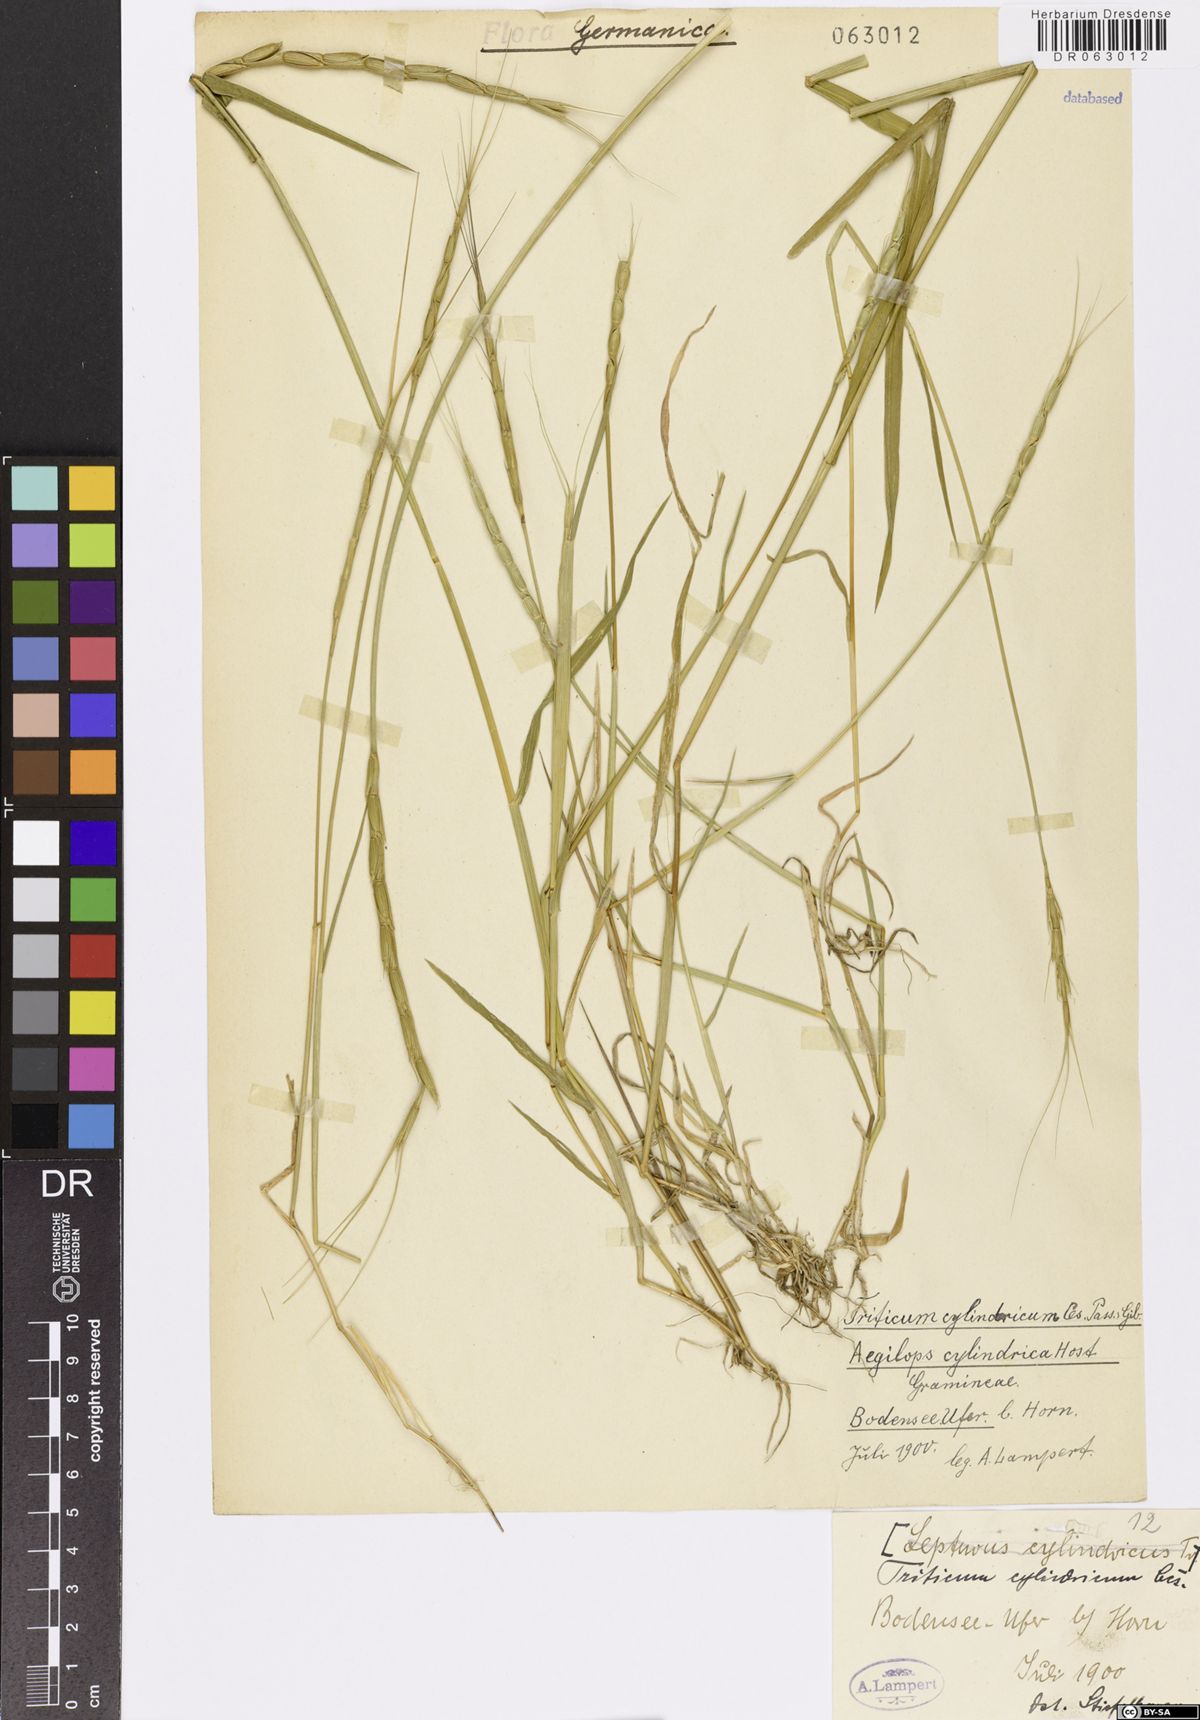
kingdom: Plantae
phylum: Tracheophyta
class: Liliopsida
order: Poales
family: Poaceae
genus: Aegilops
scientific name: Aegilops cylindrica
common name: Jointed goatgrass
